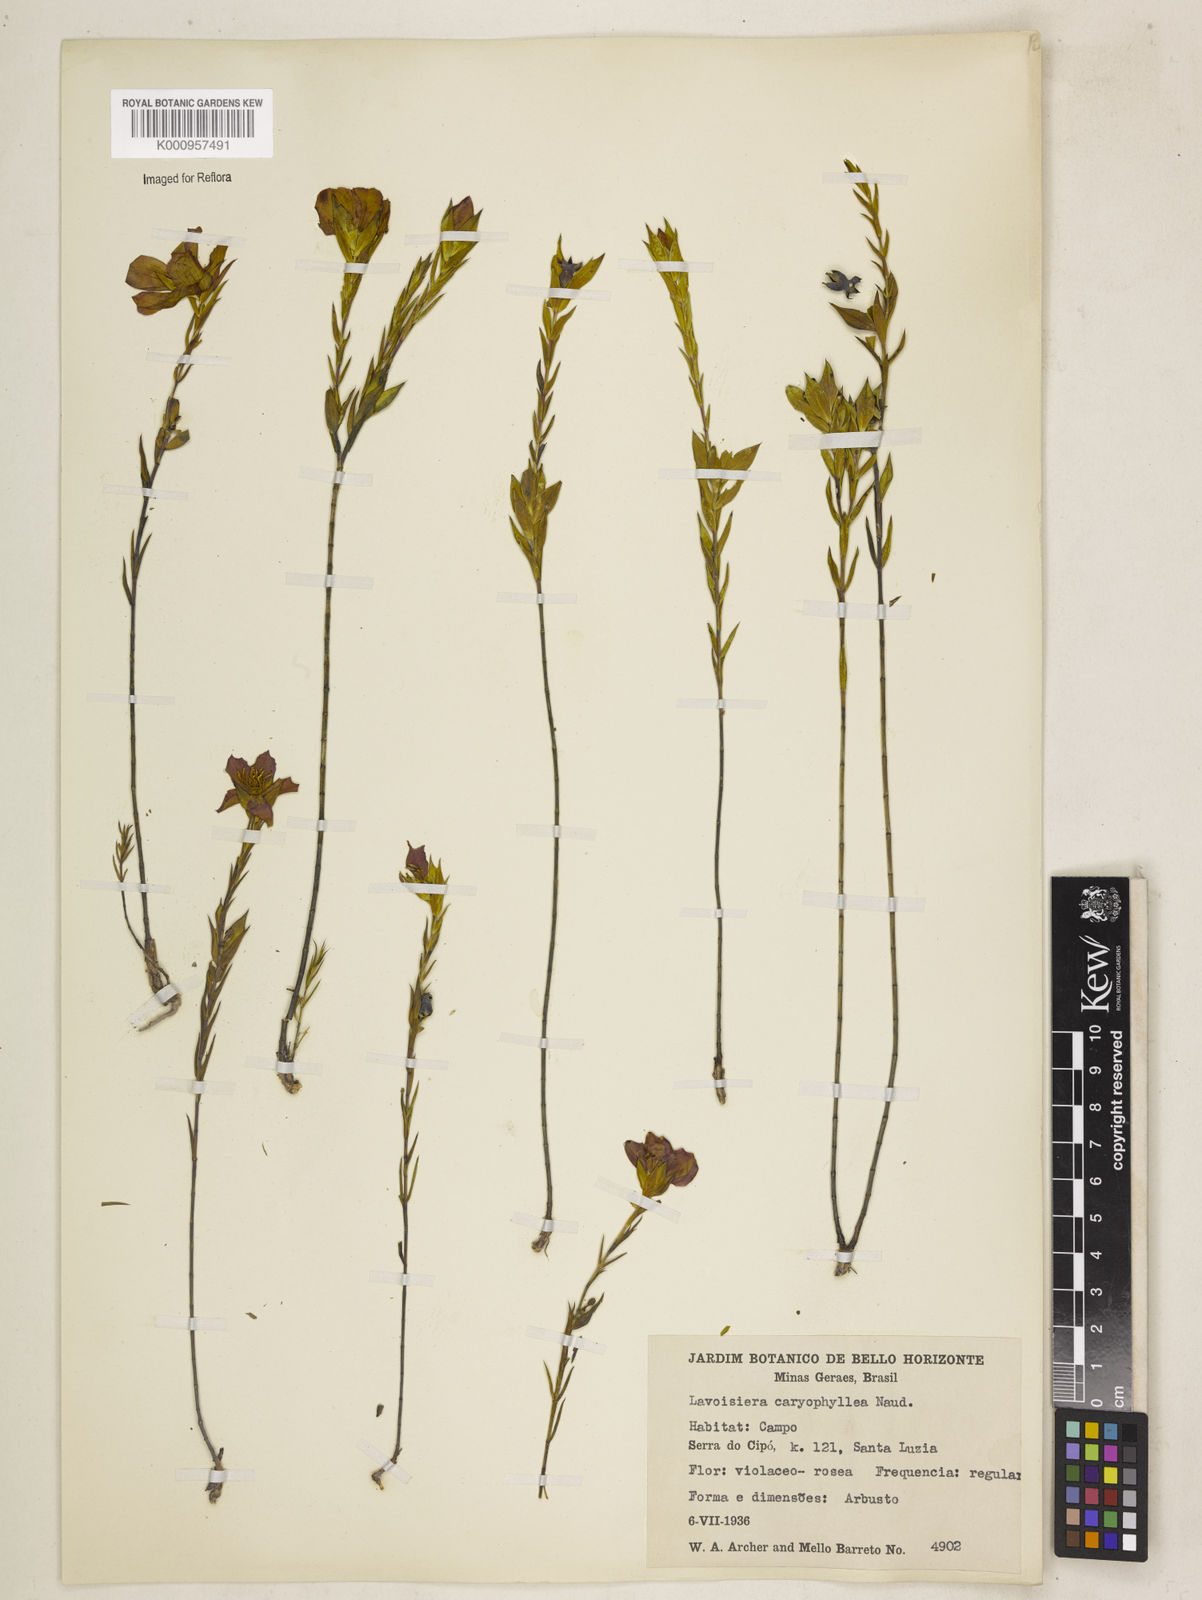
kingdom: Plantae
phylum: Tracheophyta
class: Magnoliopsida
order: Myrtales
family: Melastomataceae
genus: Microlicia
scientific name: Microlicia caryophyllea
